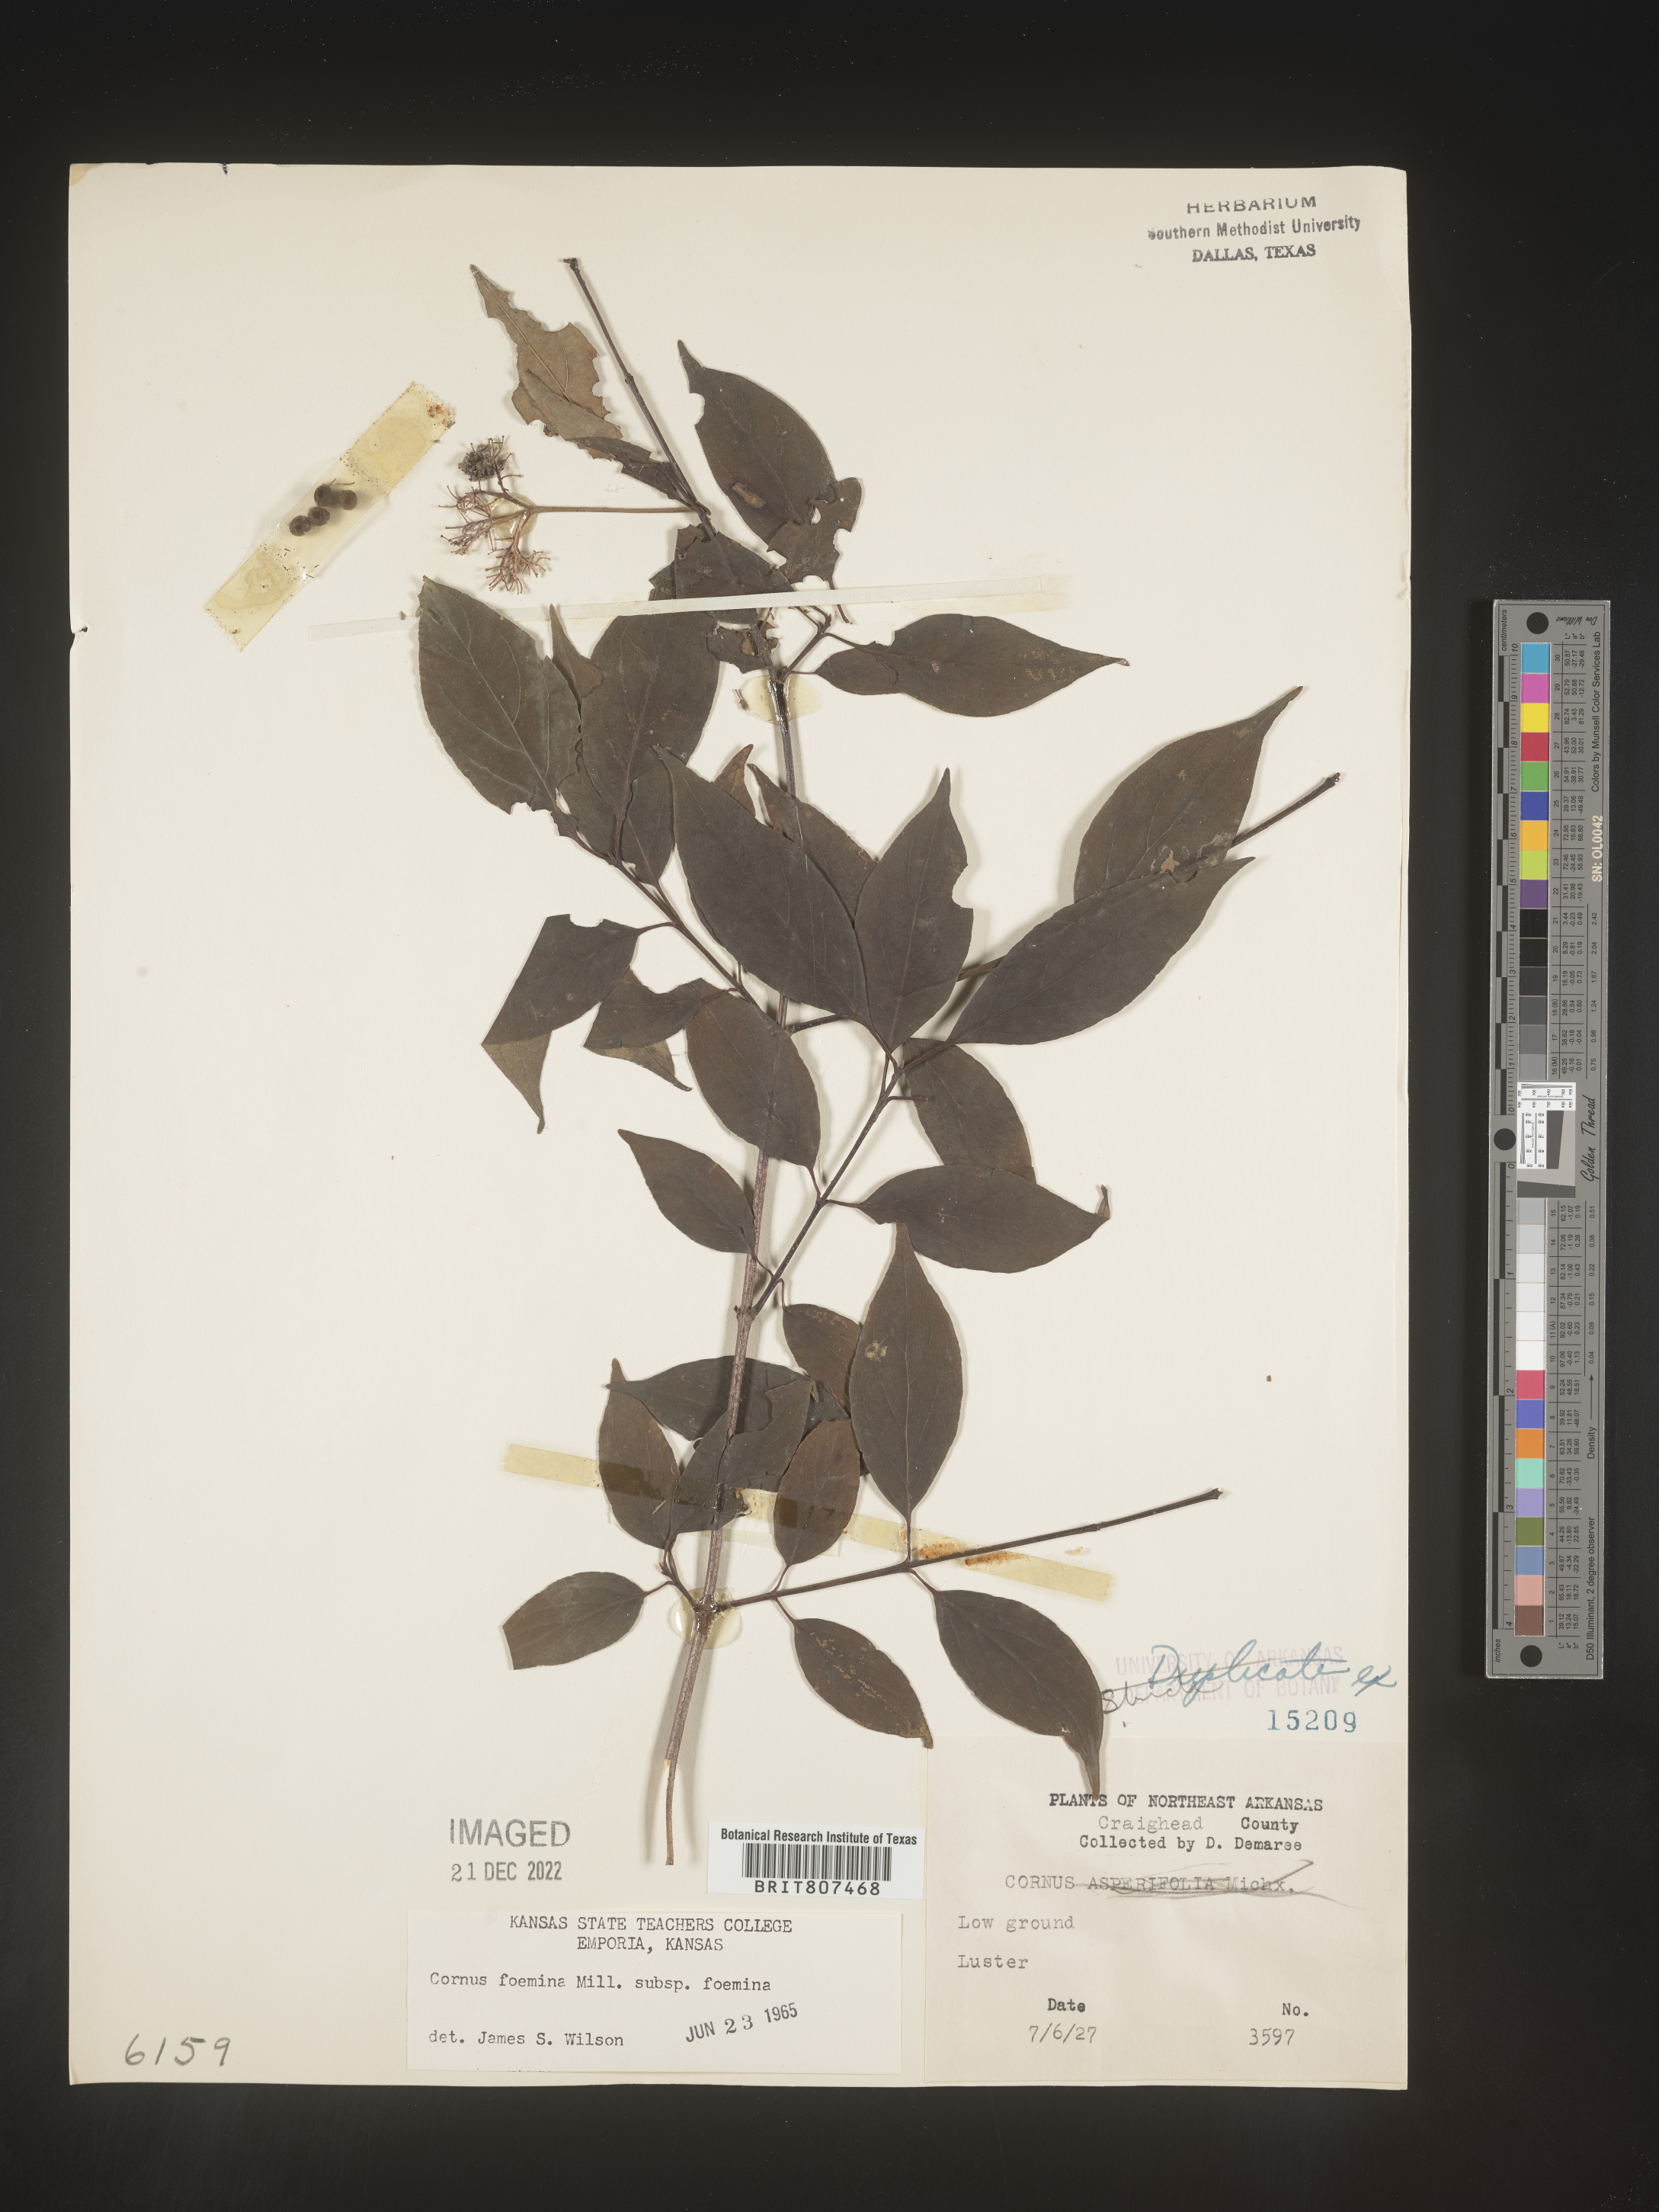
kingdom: Plantae
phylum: Tracheophyta
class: Magnoliopsida
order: Cornales
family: Cornaceae
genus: Cornus
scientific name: Cornus foemina
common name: Swamp dogwood
